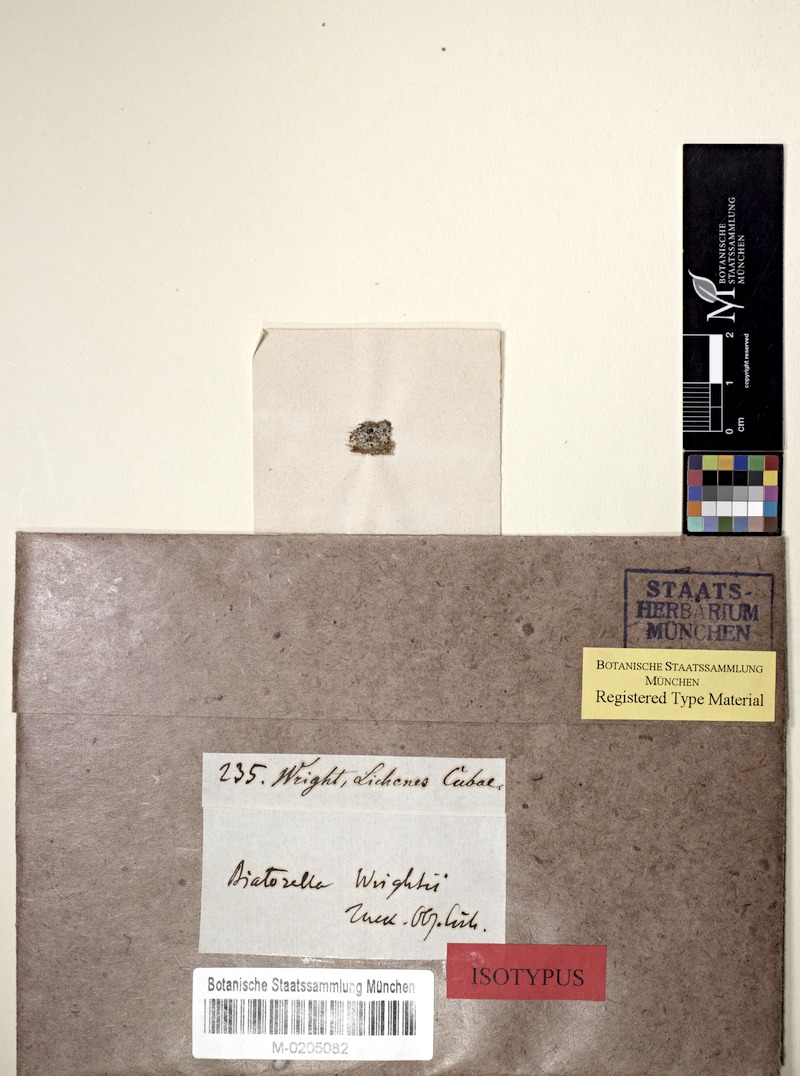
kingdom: Fungi
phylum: Ascomycota
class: Lecanoromycetes
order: Lecanorales
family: Biatorellaceae
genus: Piccolia
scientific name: Piccolia wrightii
